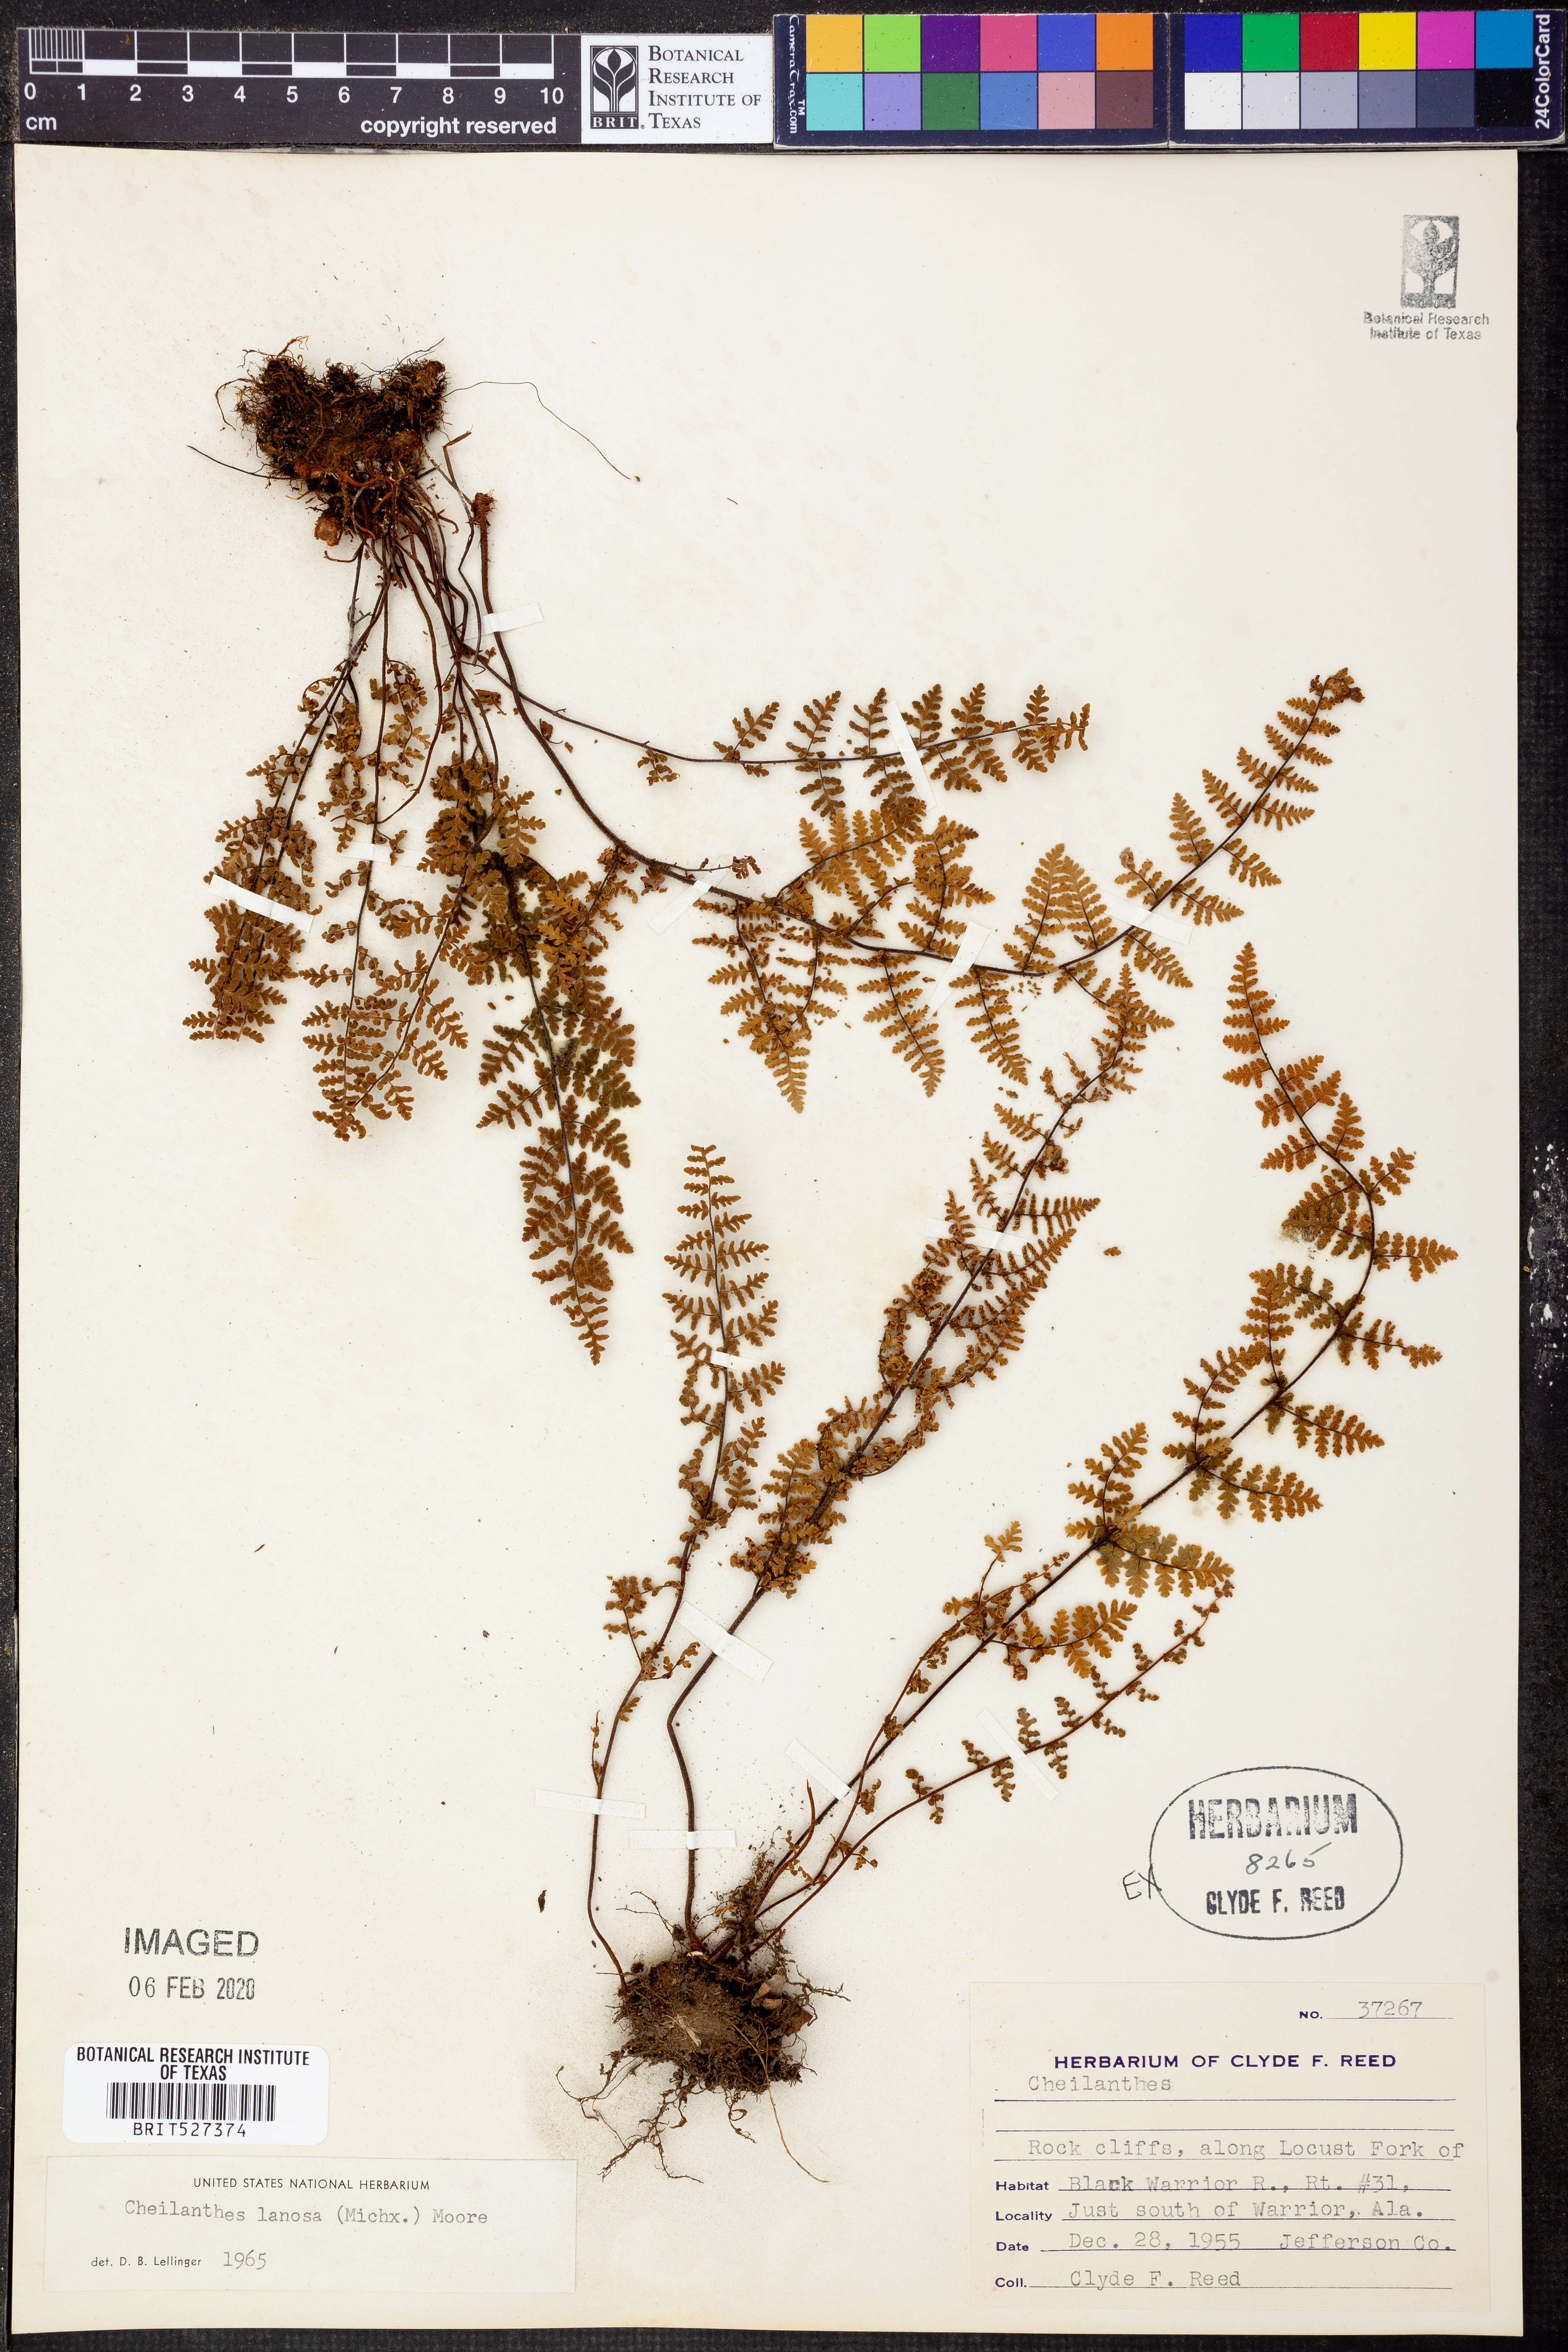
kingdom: Plantae
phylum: Tracheophyta
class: Polypodiopsida
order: Polypodiales
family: Pteridaceae
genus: Myriopteris
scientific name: Myriopteris lanosa
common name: Hairy lip fern
